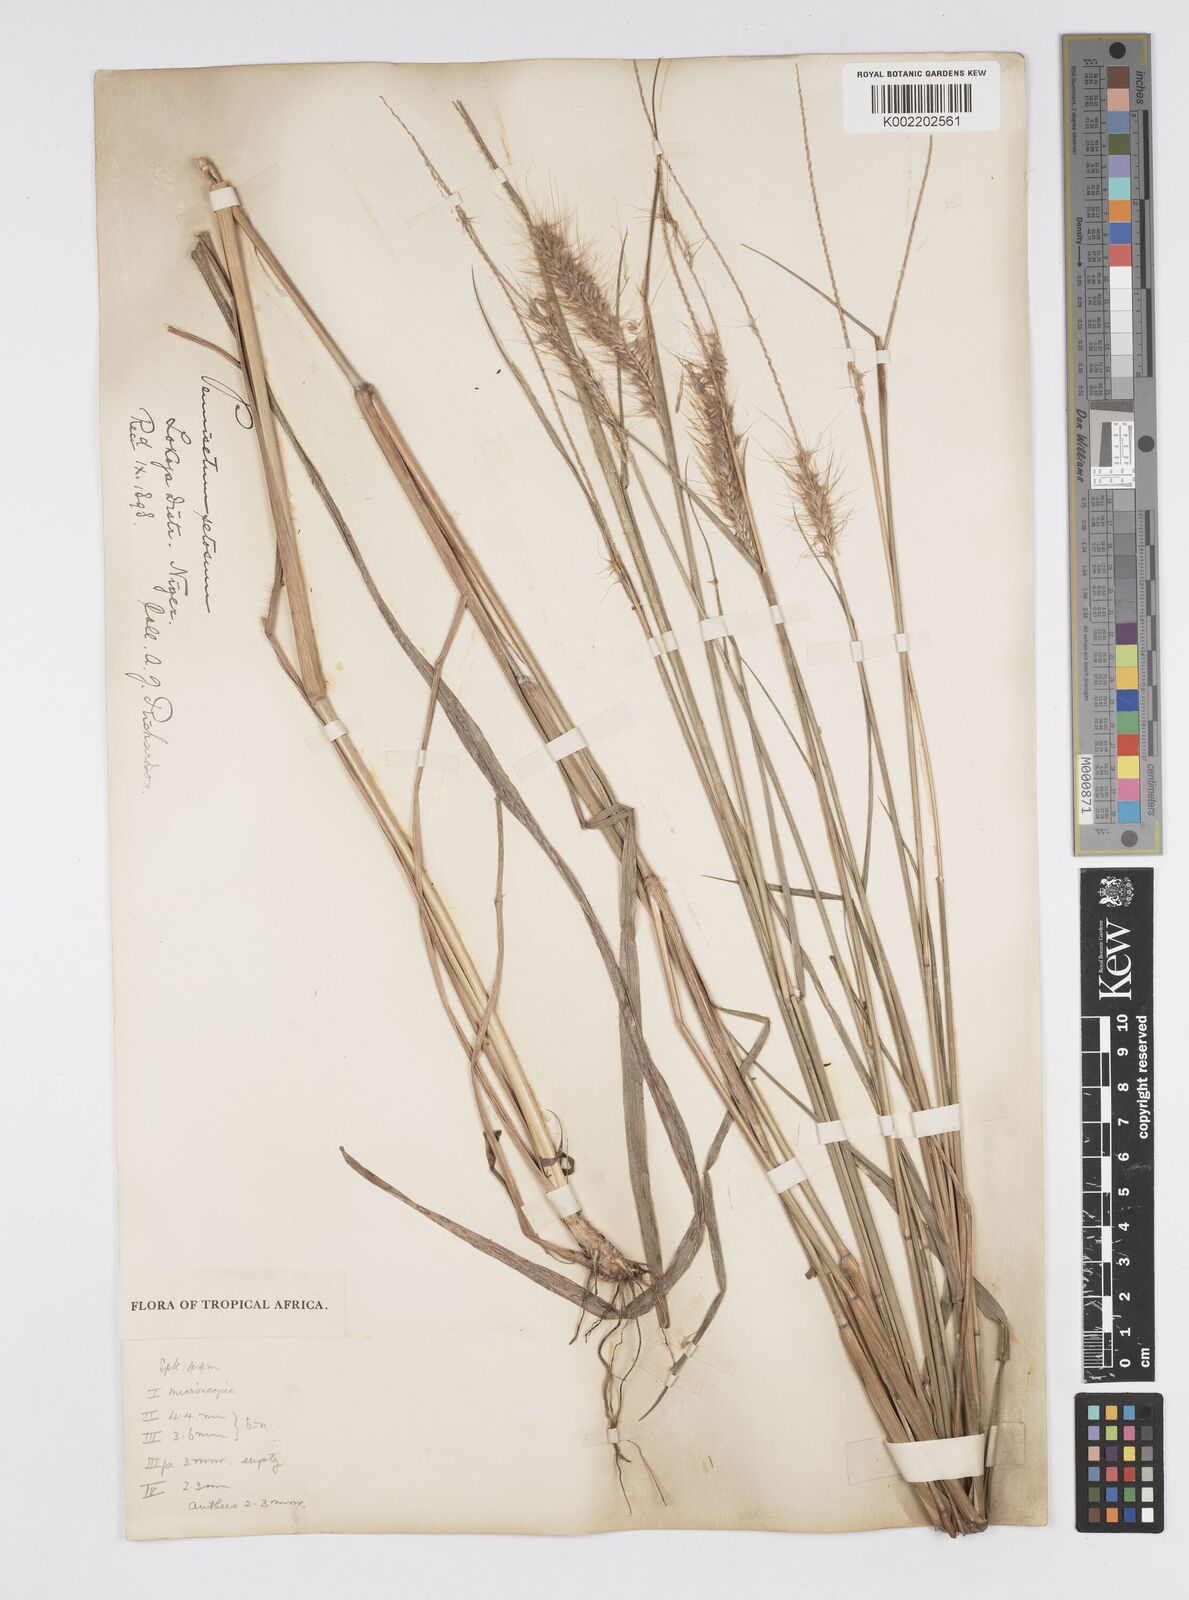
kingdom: Plantae
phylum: Tracheophyta
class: Liliopsida
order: Poales
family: Poaceae
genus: Setaria
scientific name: Setaria parviflora
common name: Knotroot bristle-grass
